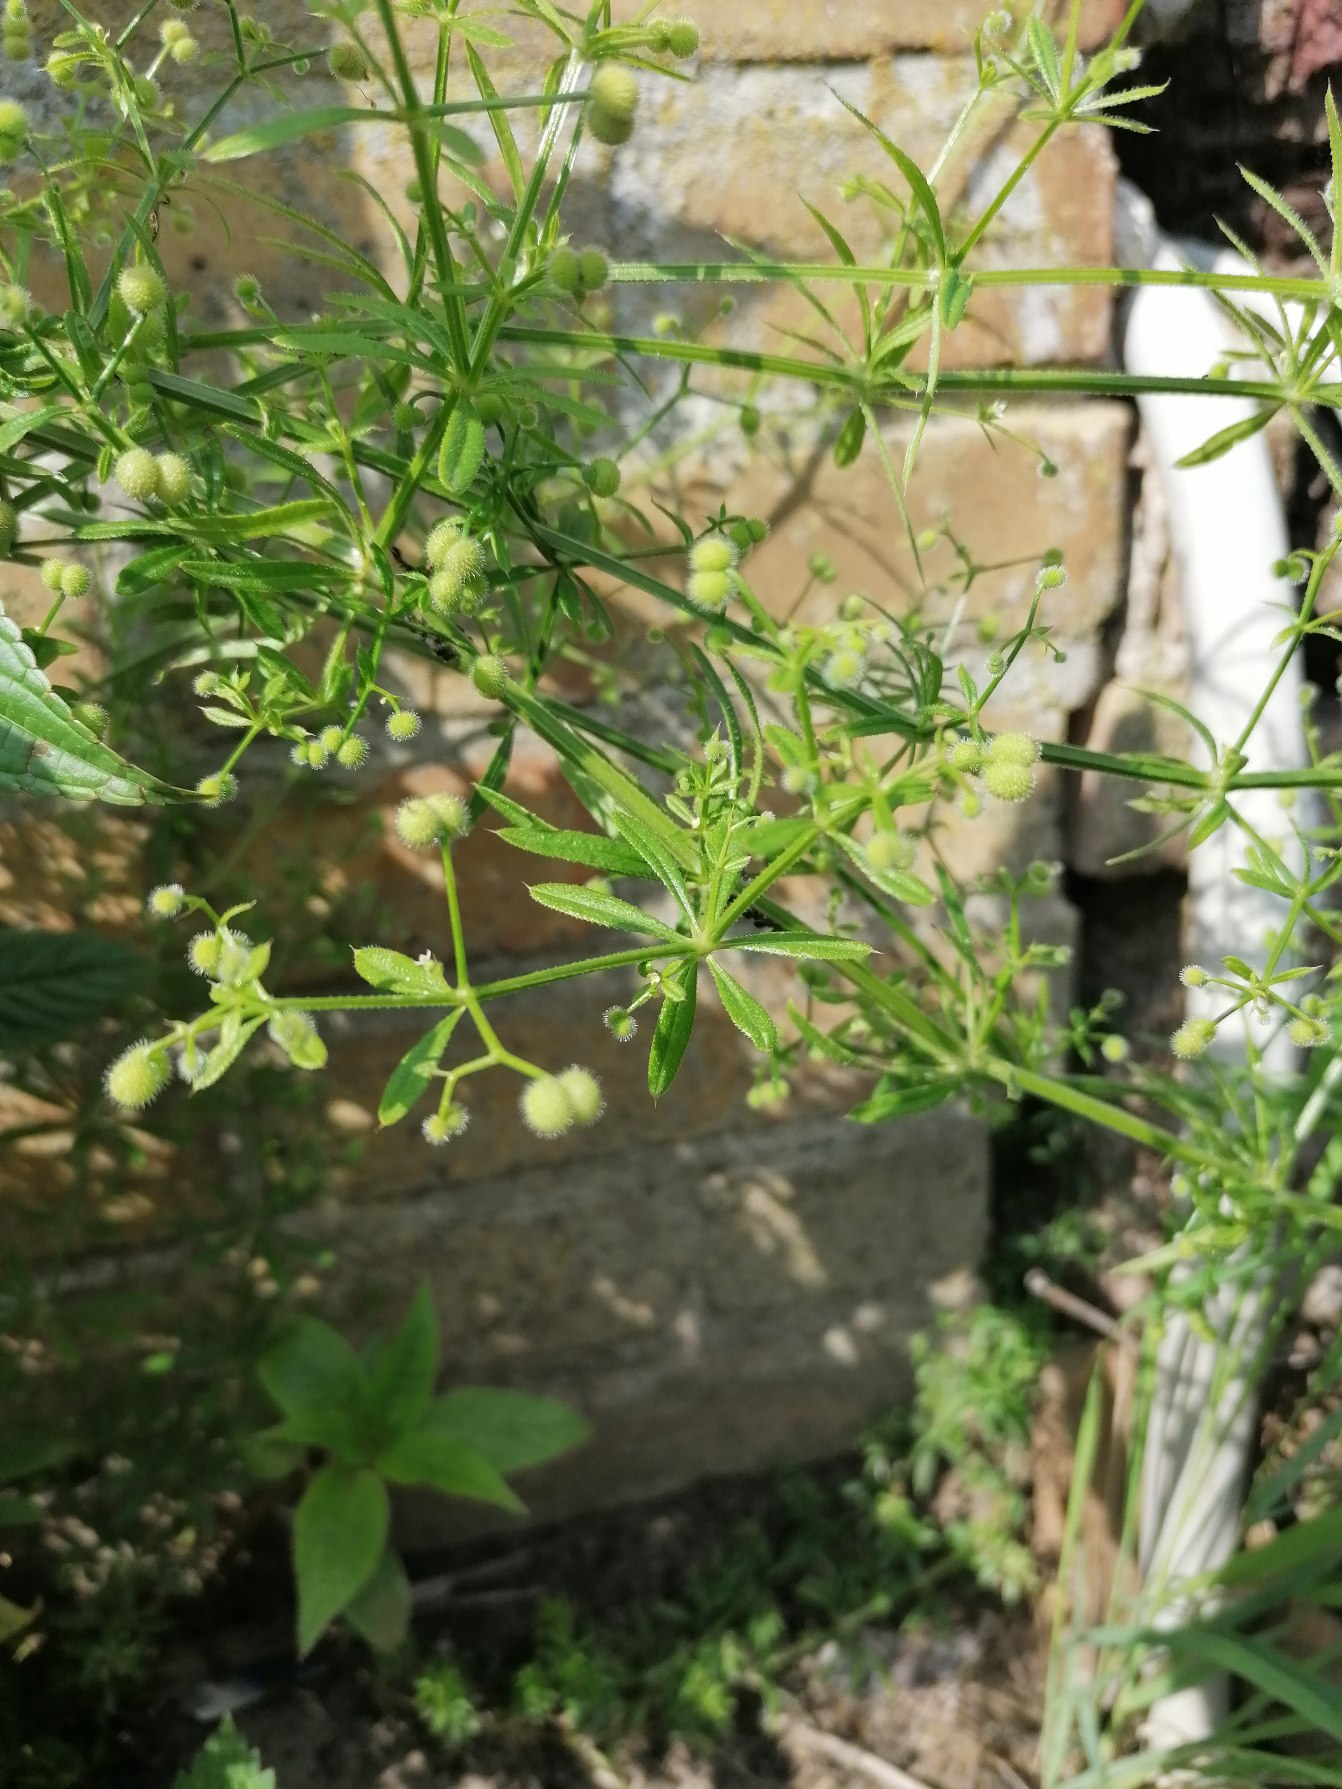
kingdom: Plantae
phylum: Tracheophyta
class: Magnoliopsida
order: Gentianales
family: Rubiaceae
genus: Galium
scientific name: Galium aparine
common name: Burre-snerre
